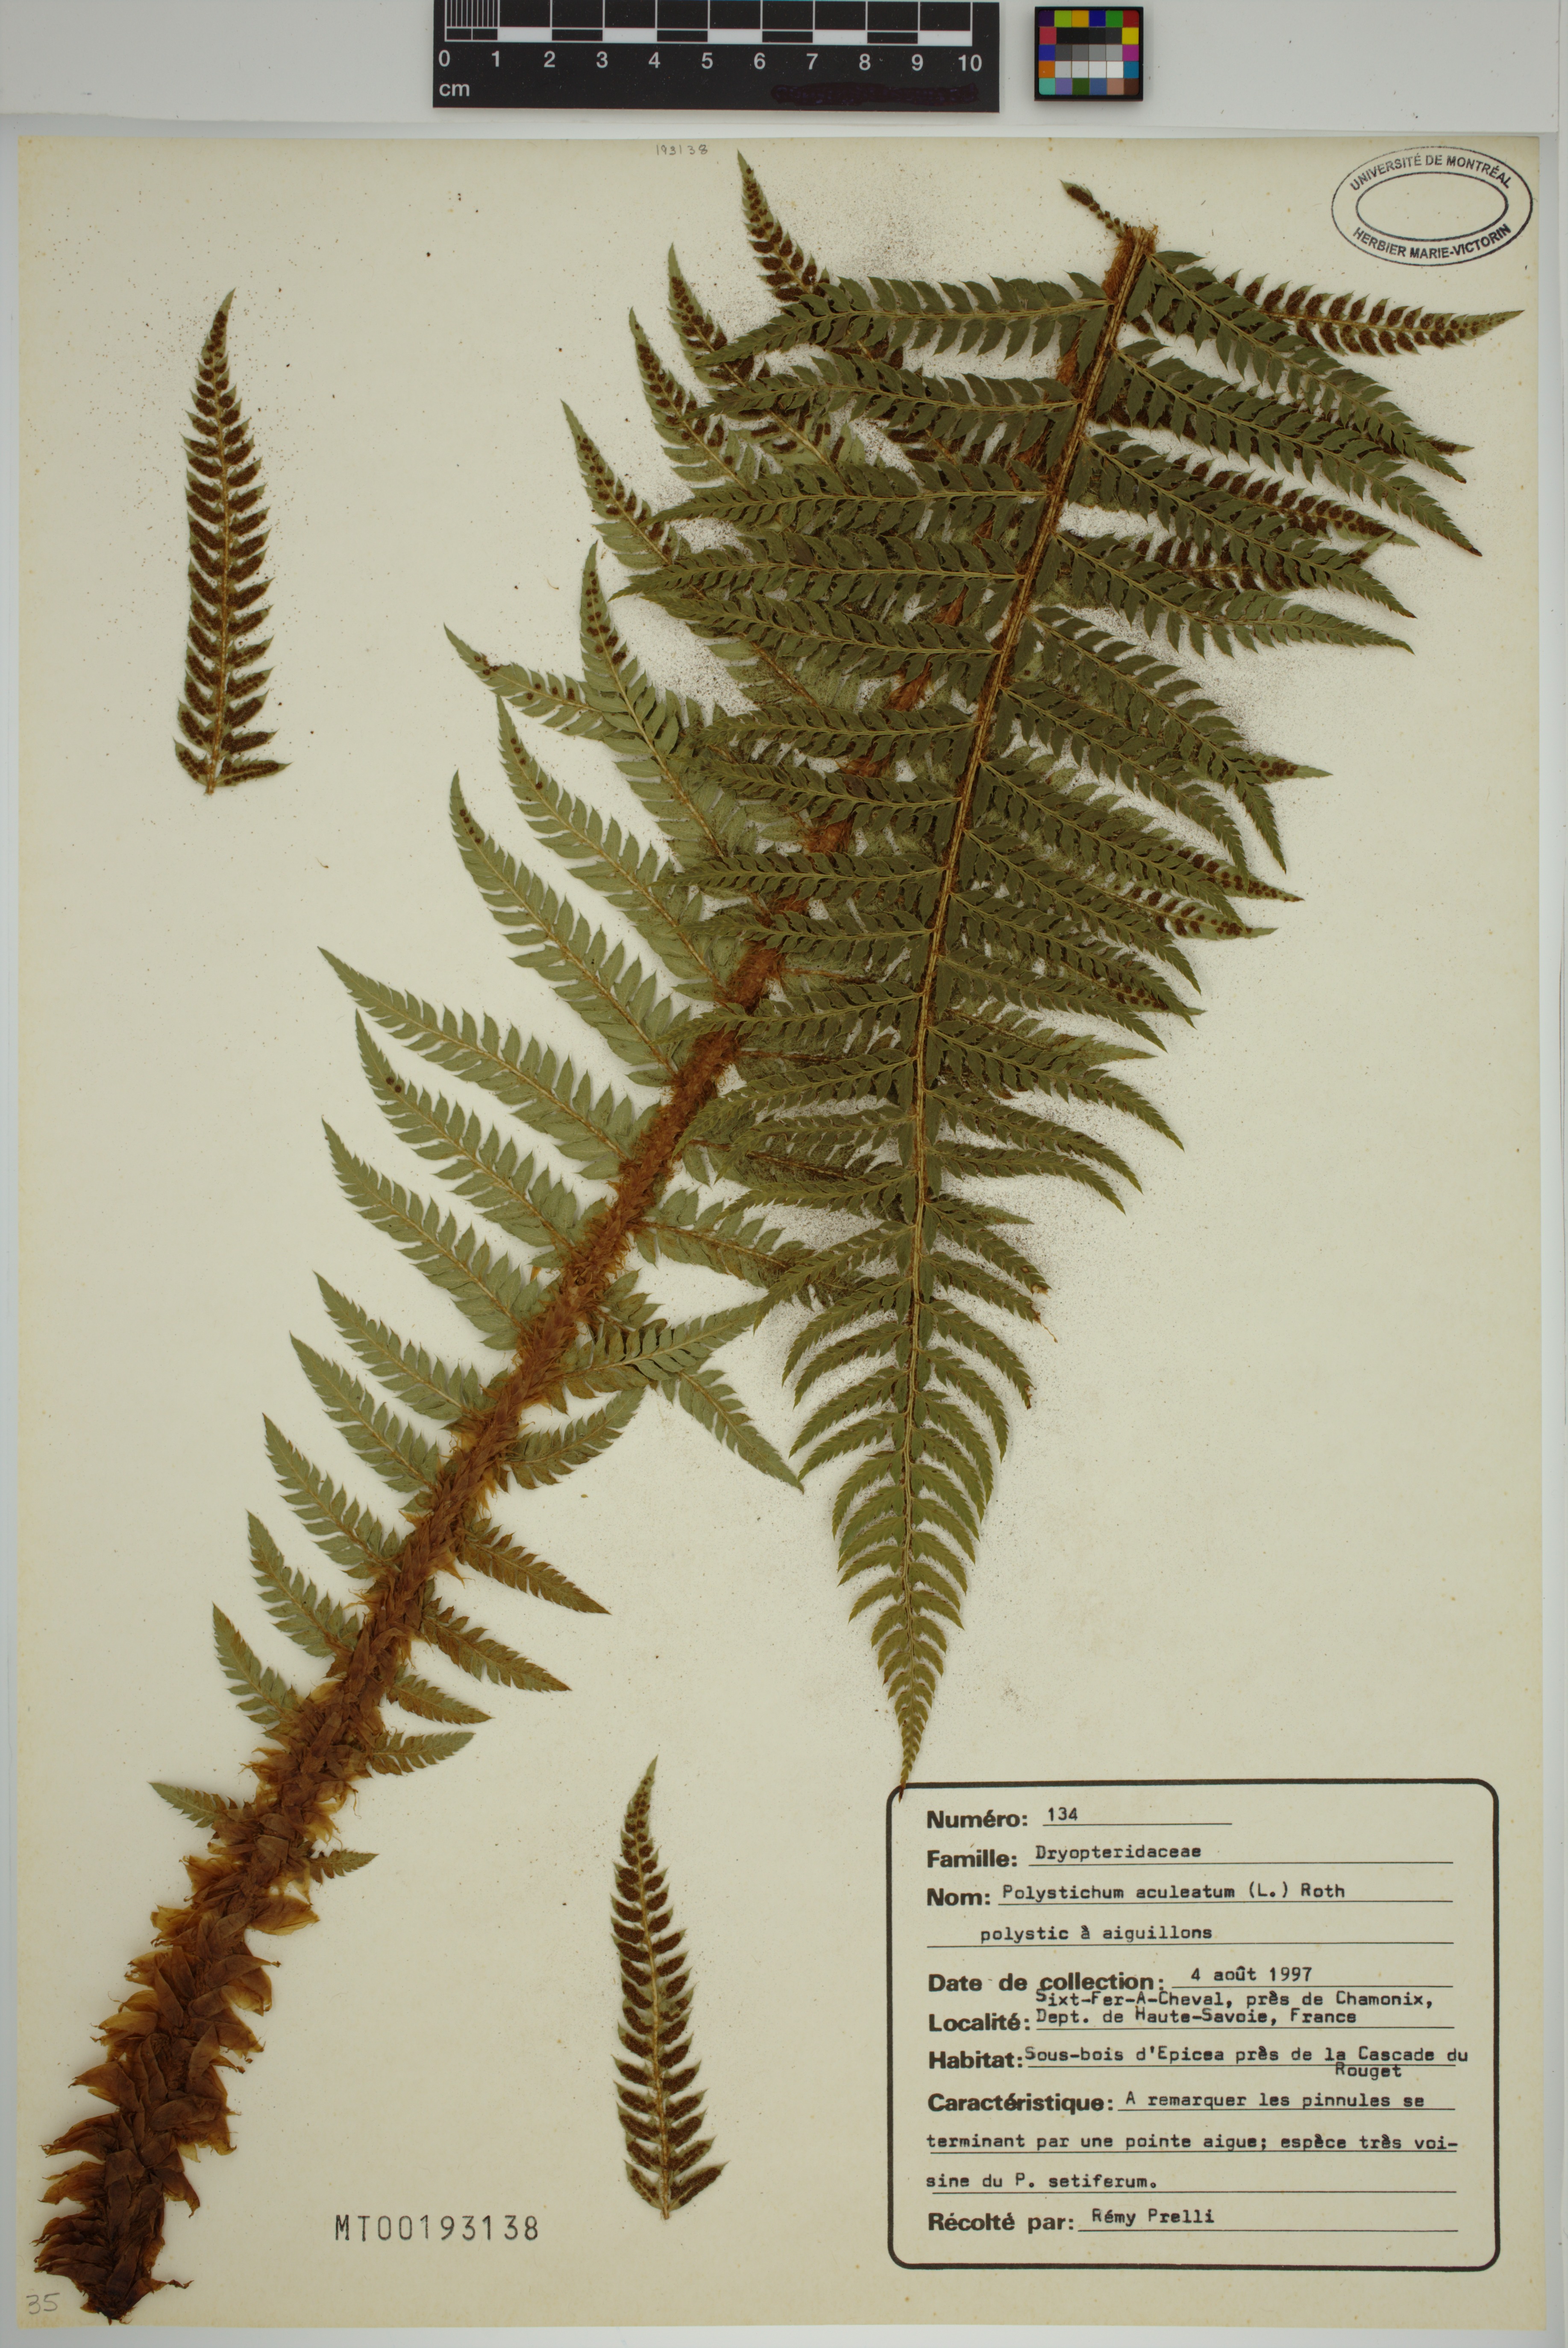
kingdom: Plantae
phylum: Tracheophyta
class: Polypodiopsida
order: Polypodiales
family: Dryopteridaceae
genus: Polystichum
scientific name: Polystichum aculeatum
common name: Hard shield-fern
